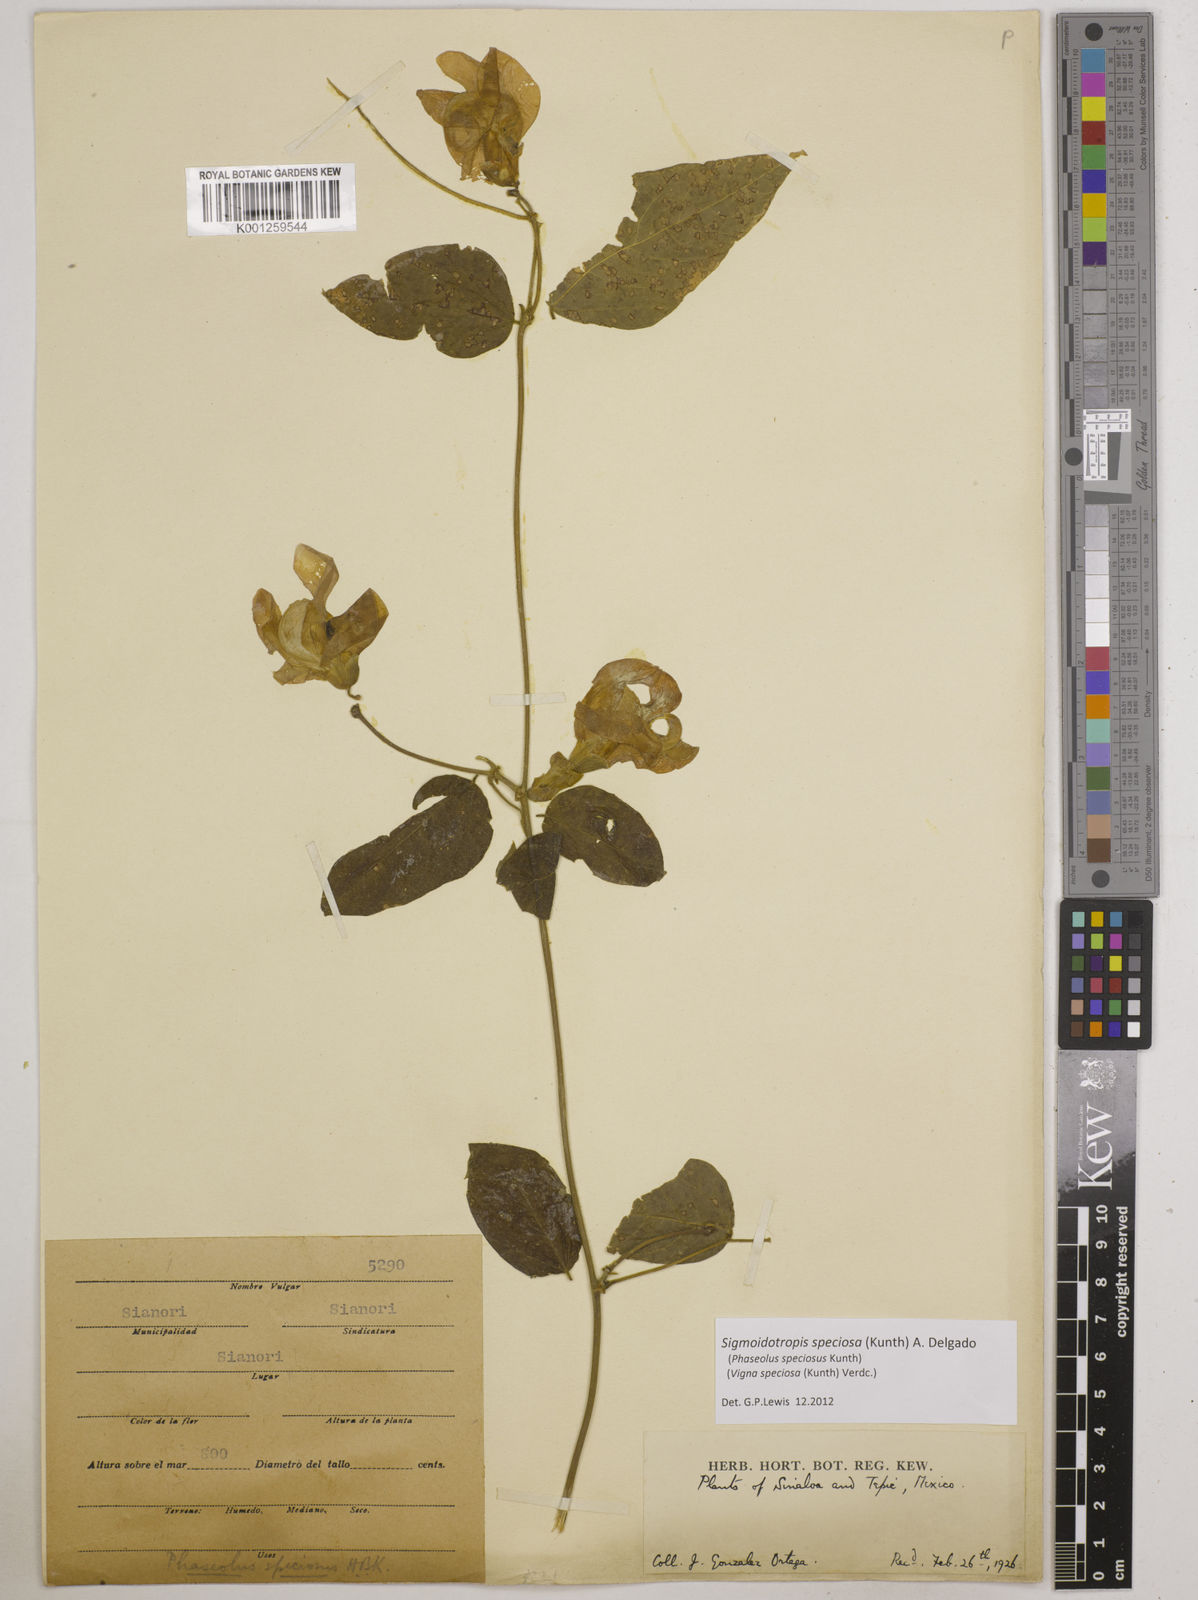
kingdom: Plantae
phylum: Tracheophyta
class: Magnoliopsida
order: Fabales
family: Fabaceae
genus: Sigmoidotropis
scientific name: Sigmoidotropis speciosa
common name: Snail flower
